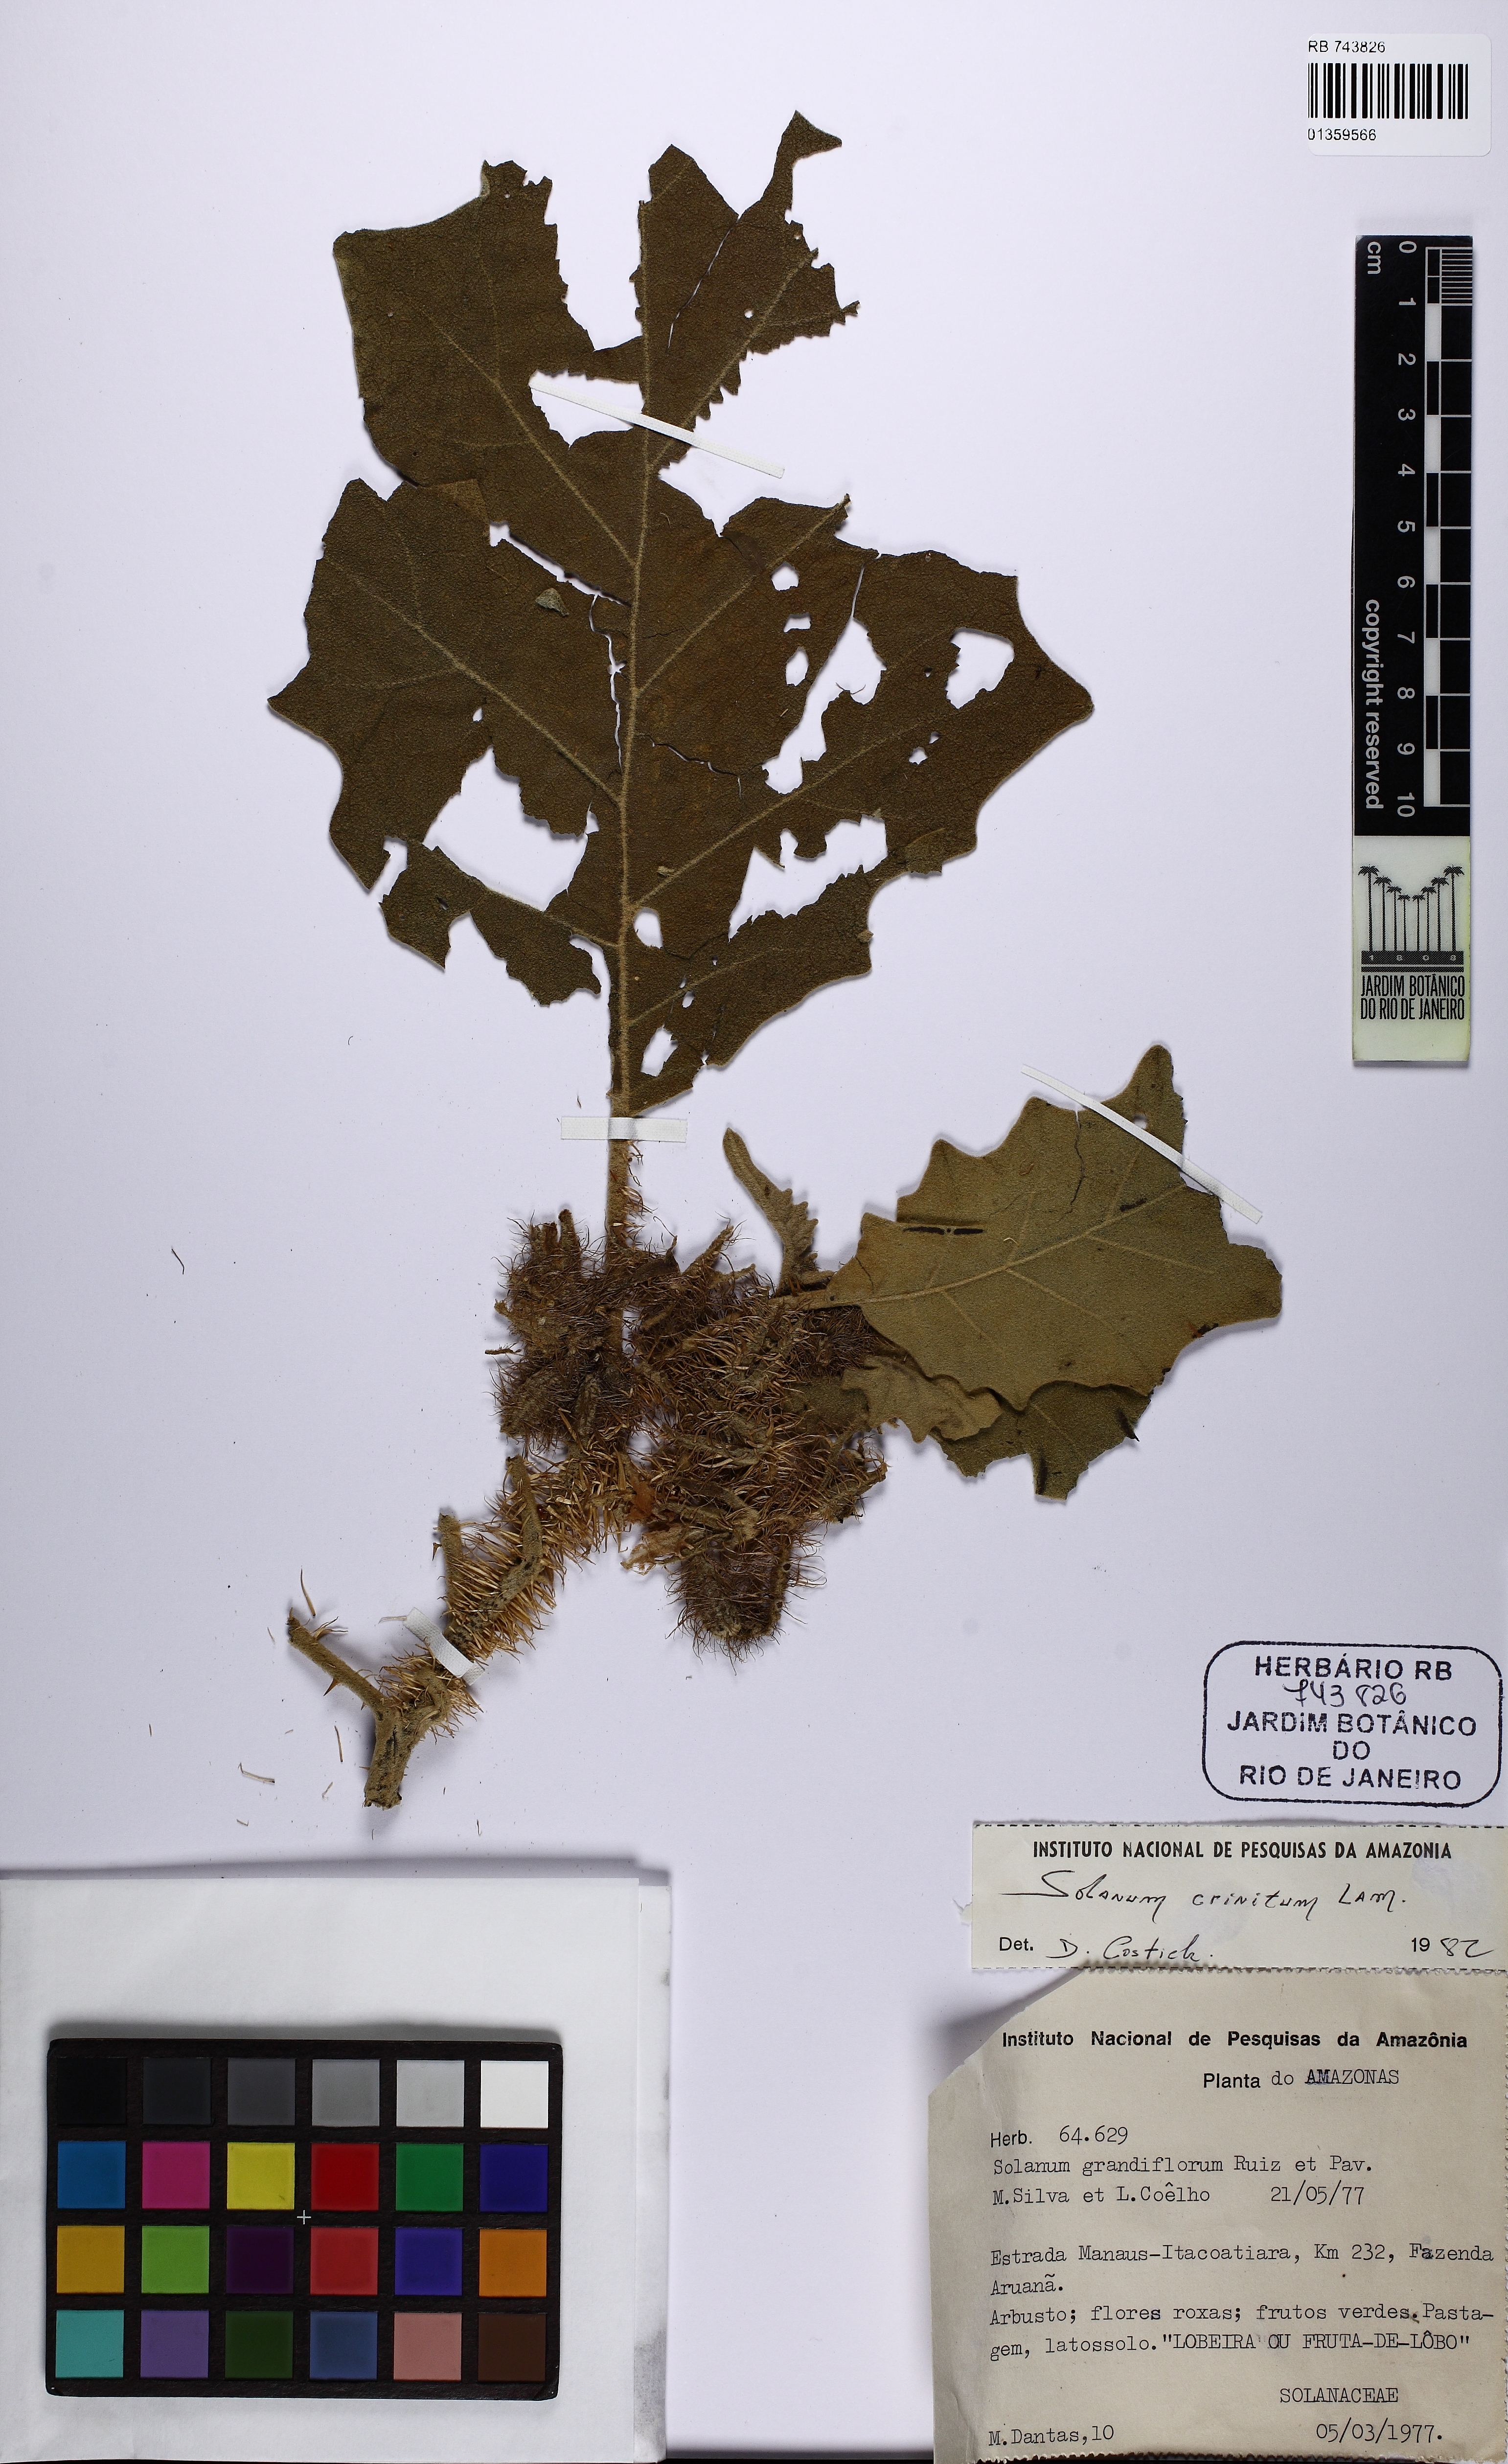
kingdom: Plantae
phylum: Tracheophyta
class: Magnoliopsida
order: Solanales
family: Solanaceae
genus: Solanum
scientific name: Solanum crinitum
